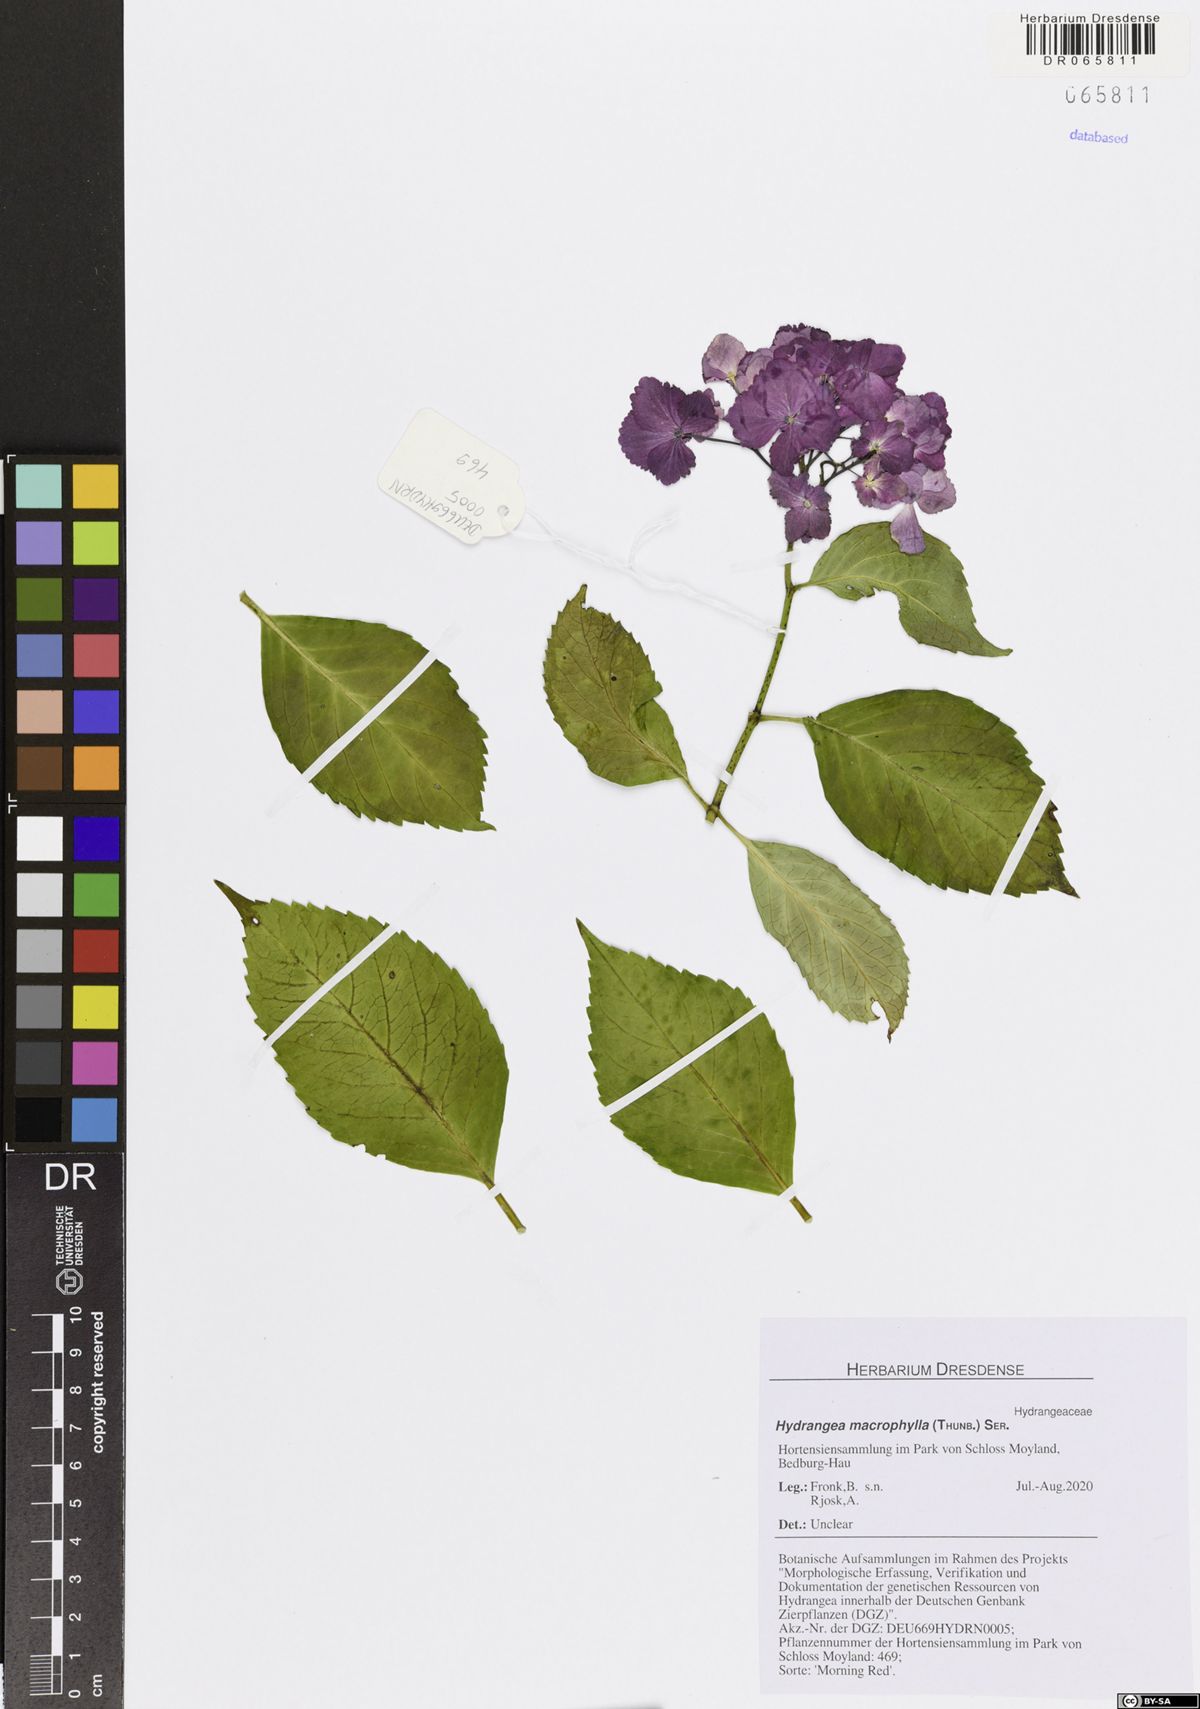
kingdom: Plantae
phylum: Tracheophyta
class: Magnoliopsida
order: Cornales
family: Hydrangeaceae
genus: Hydrangea
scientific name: Hydrangea macrophylla
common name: Hydrangea
